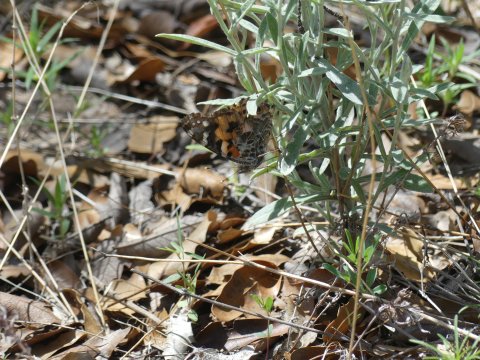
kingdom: Animalia
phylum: Arthropoda
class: Insecta
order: Lepidoptera
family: Nymphalidae
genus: Vanessa
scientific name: Vanessa cardui
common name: Painted Lady
